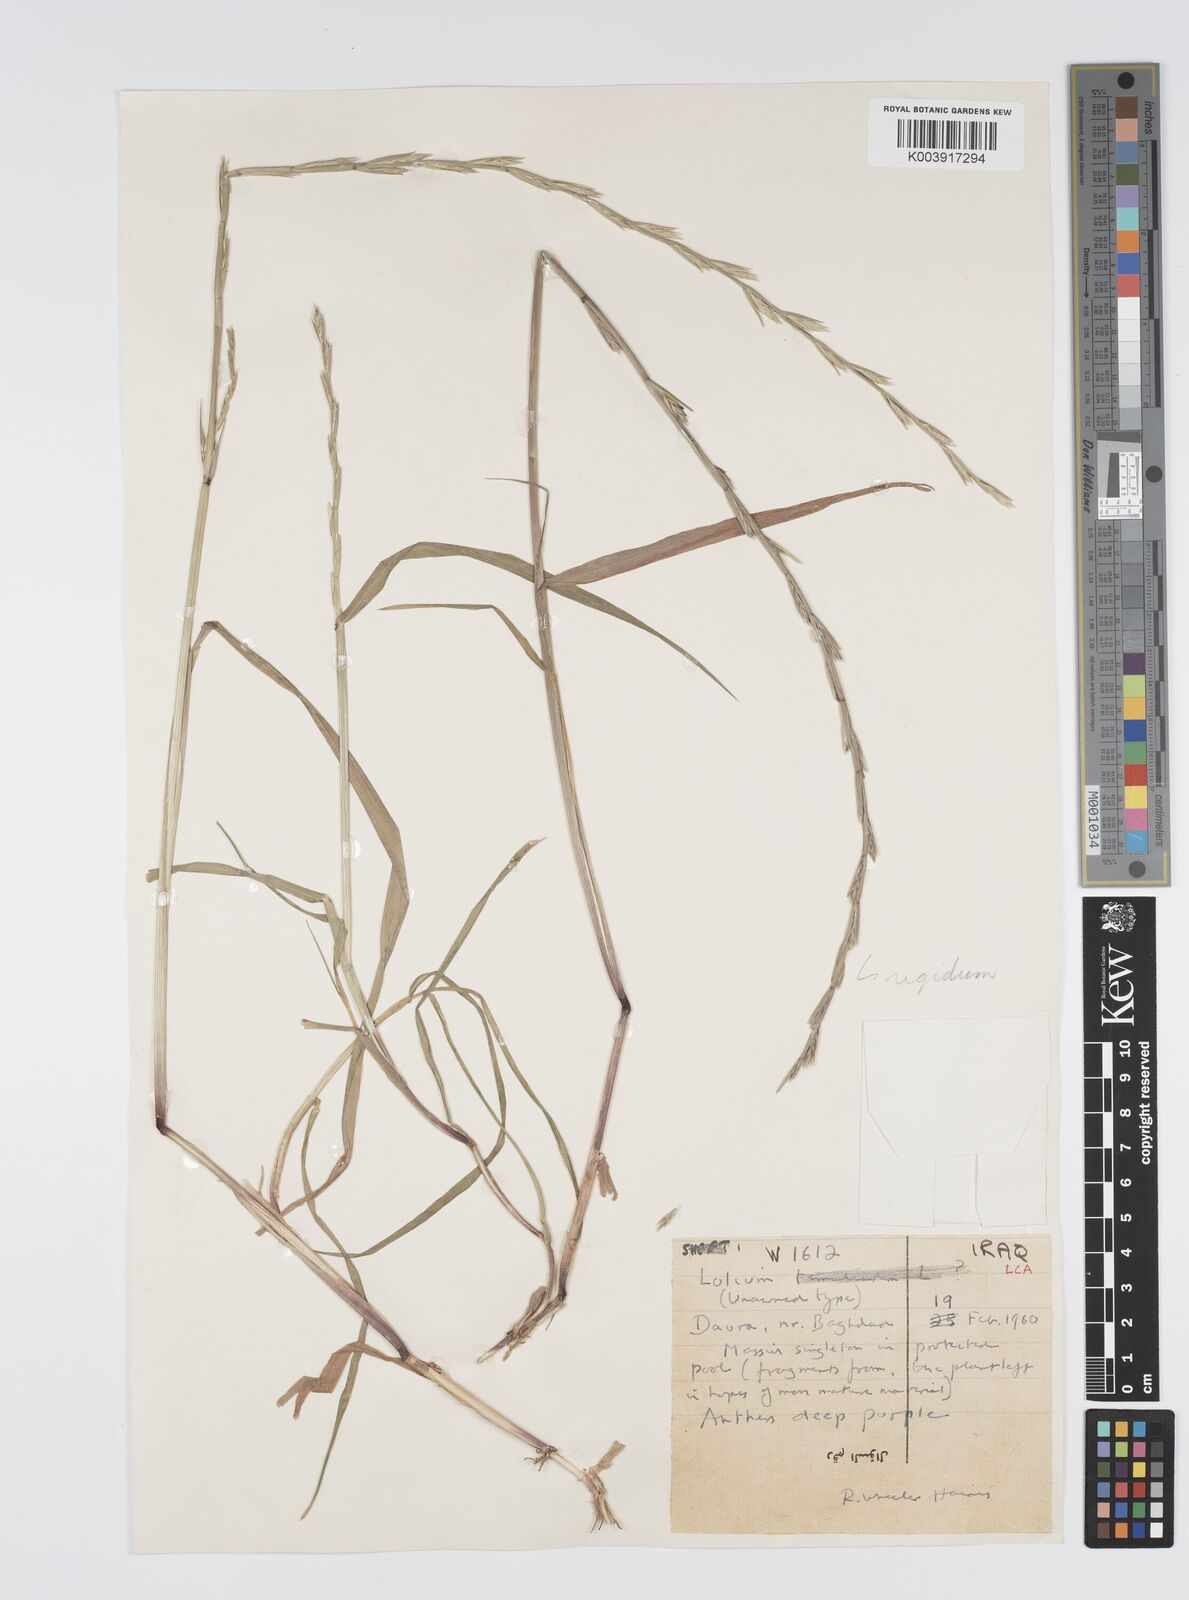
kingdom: Plantae
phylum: Tracheophyta
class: Liliopsida
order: Poales
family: Poaceae
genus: Lolium
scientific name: Lolium rigidum
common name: Wimmera ryegrass
